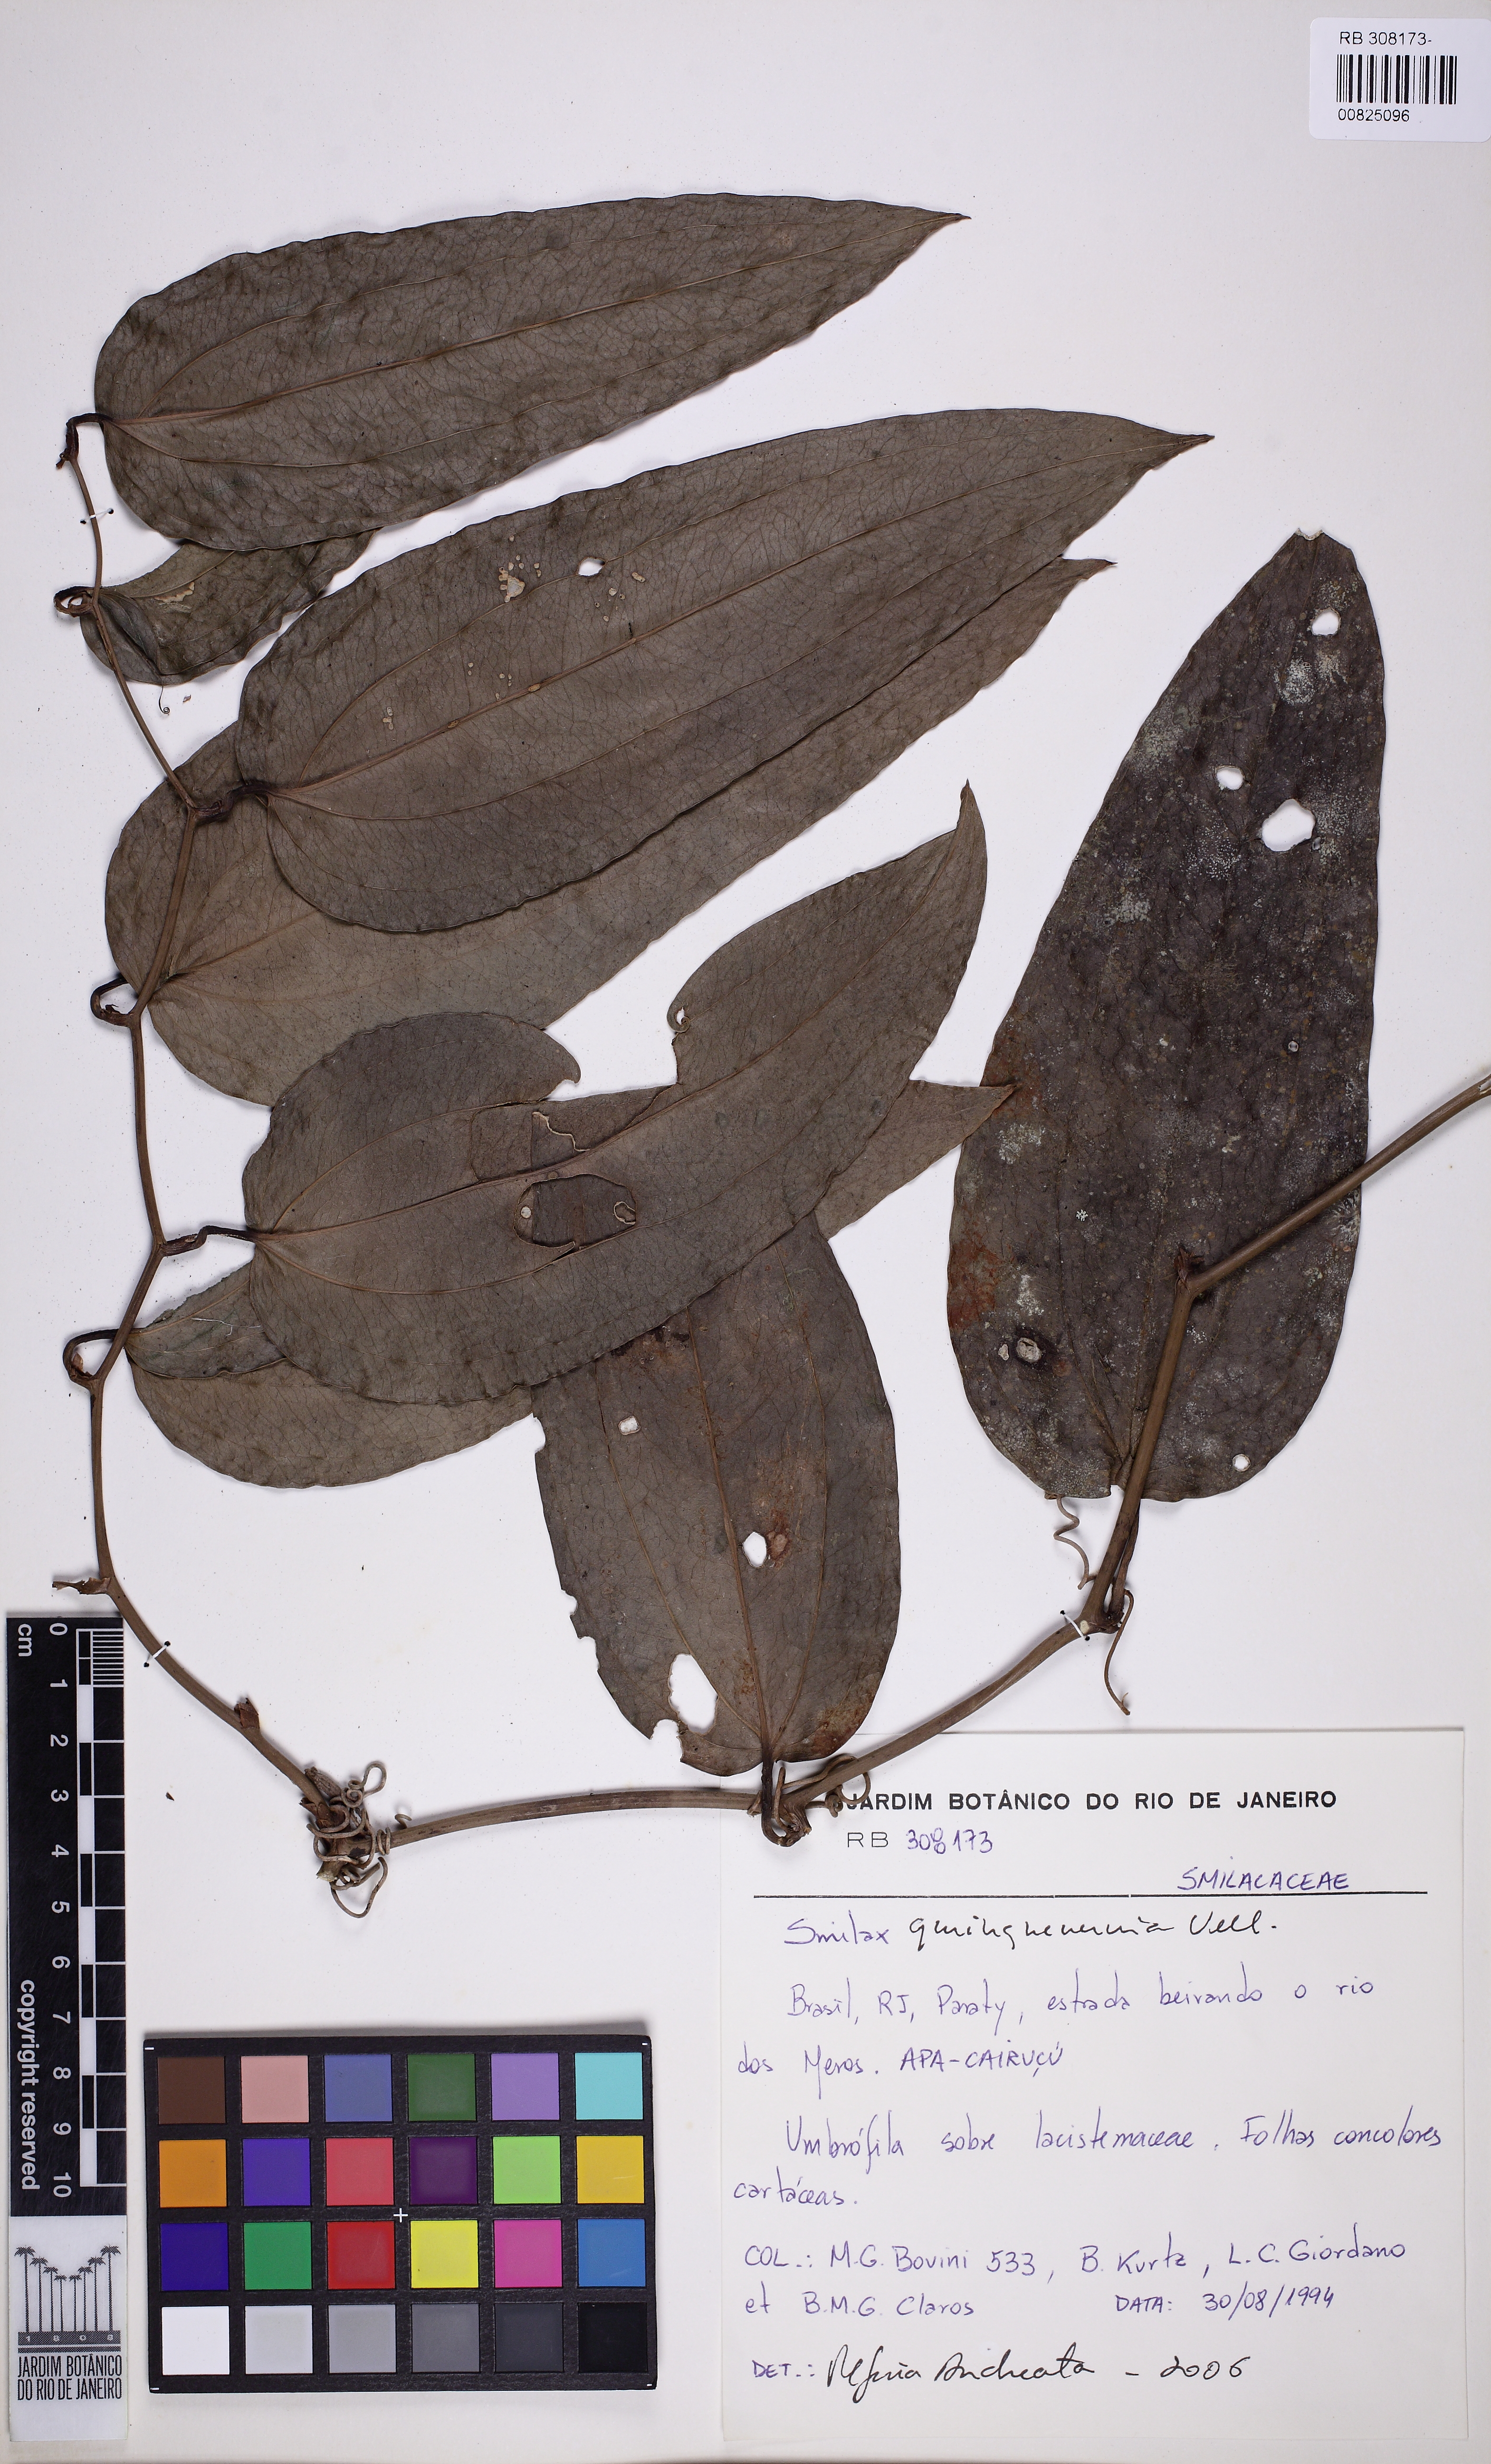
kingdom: Plantae
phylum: Tracheophyta
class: Liliopsida
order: Liliales
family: Smilacaceae
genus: Smilax
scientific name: Smilax quinquenervia
